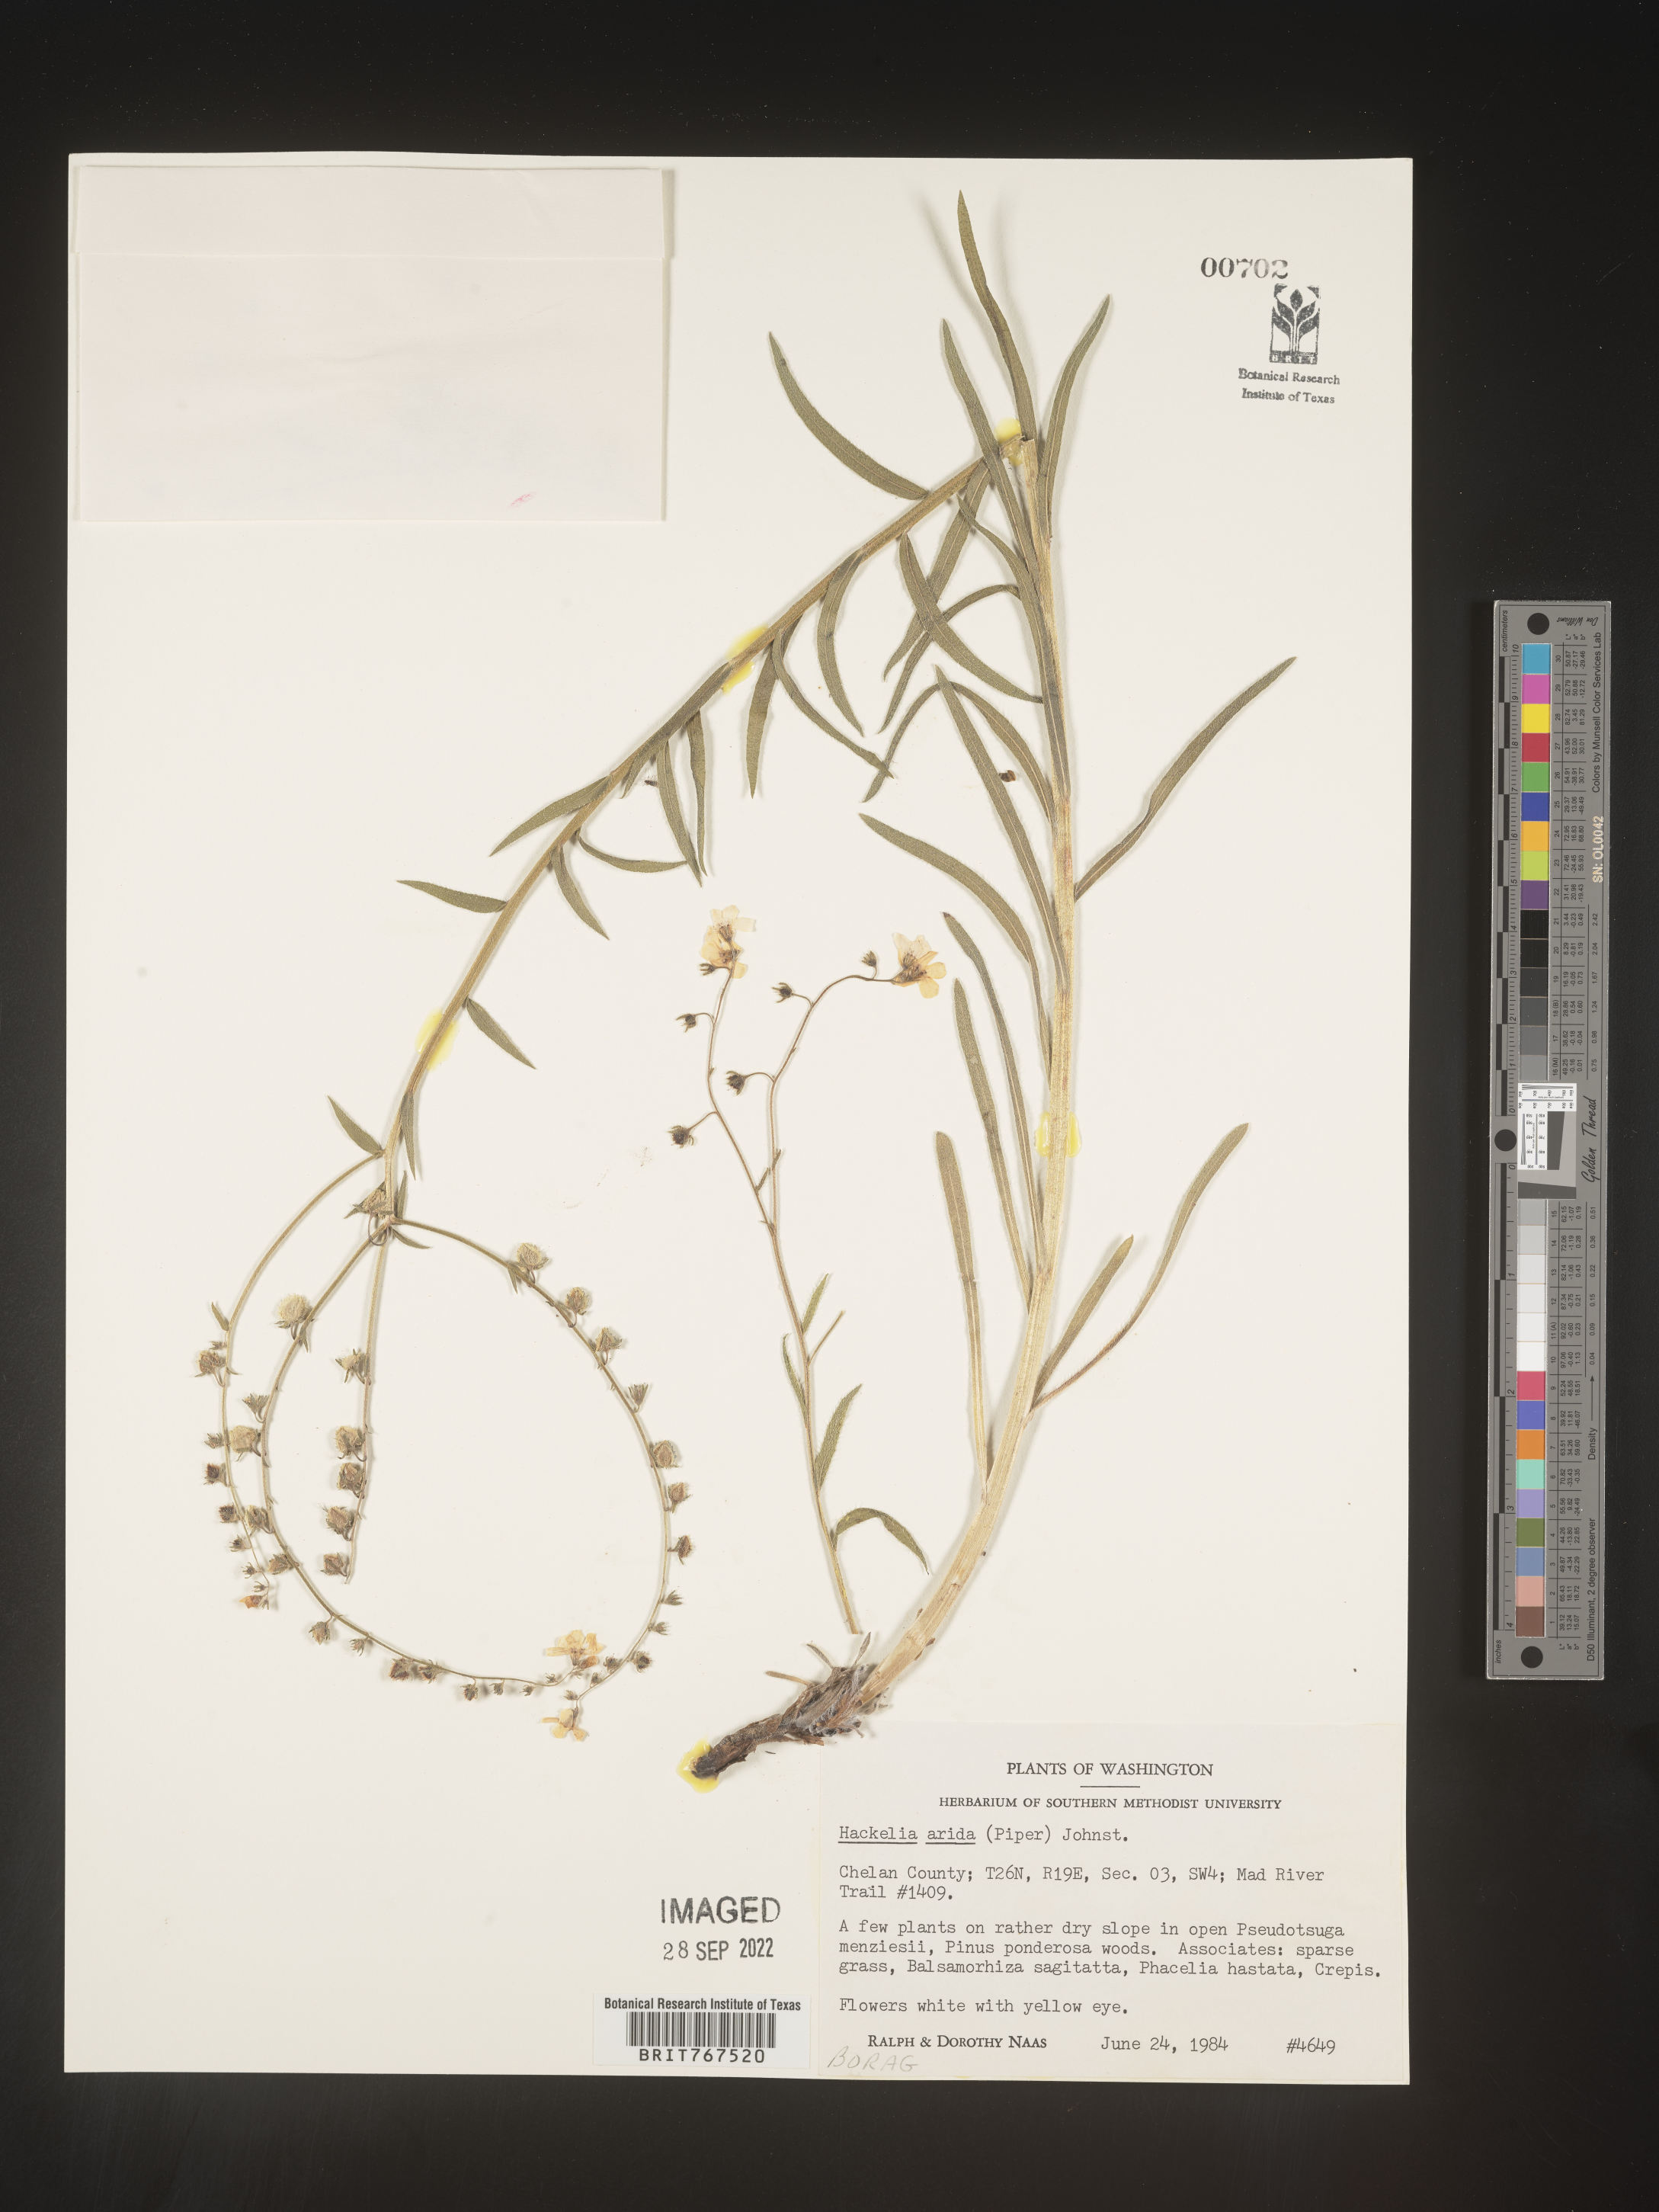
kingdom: Plantae
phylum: Tracheophyta
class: Magnoliopsida
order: Boraginales
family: Boraginaceae
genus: Hackelia
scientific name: Hackelia
